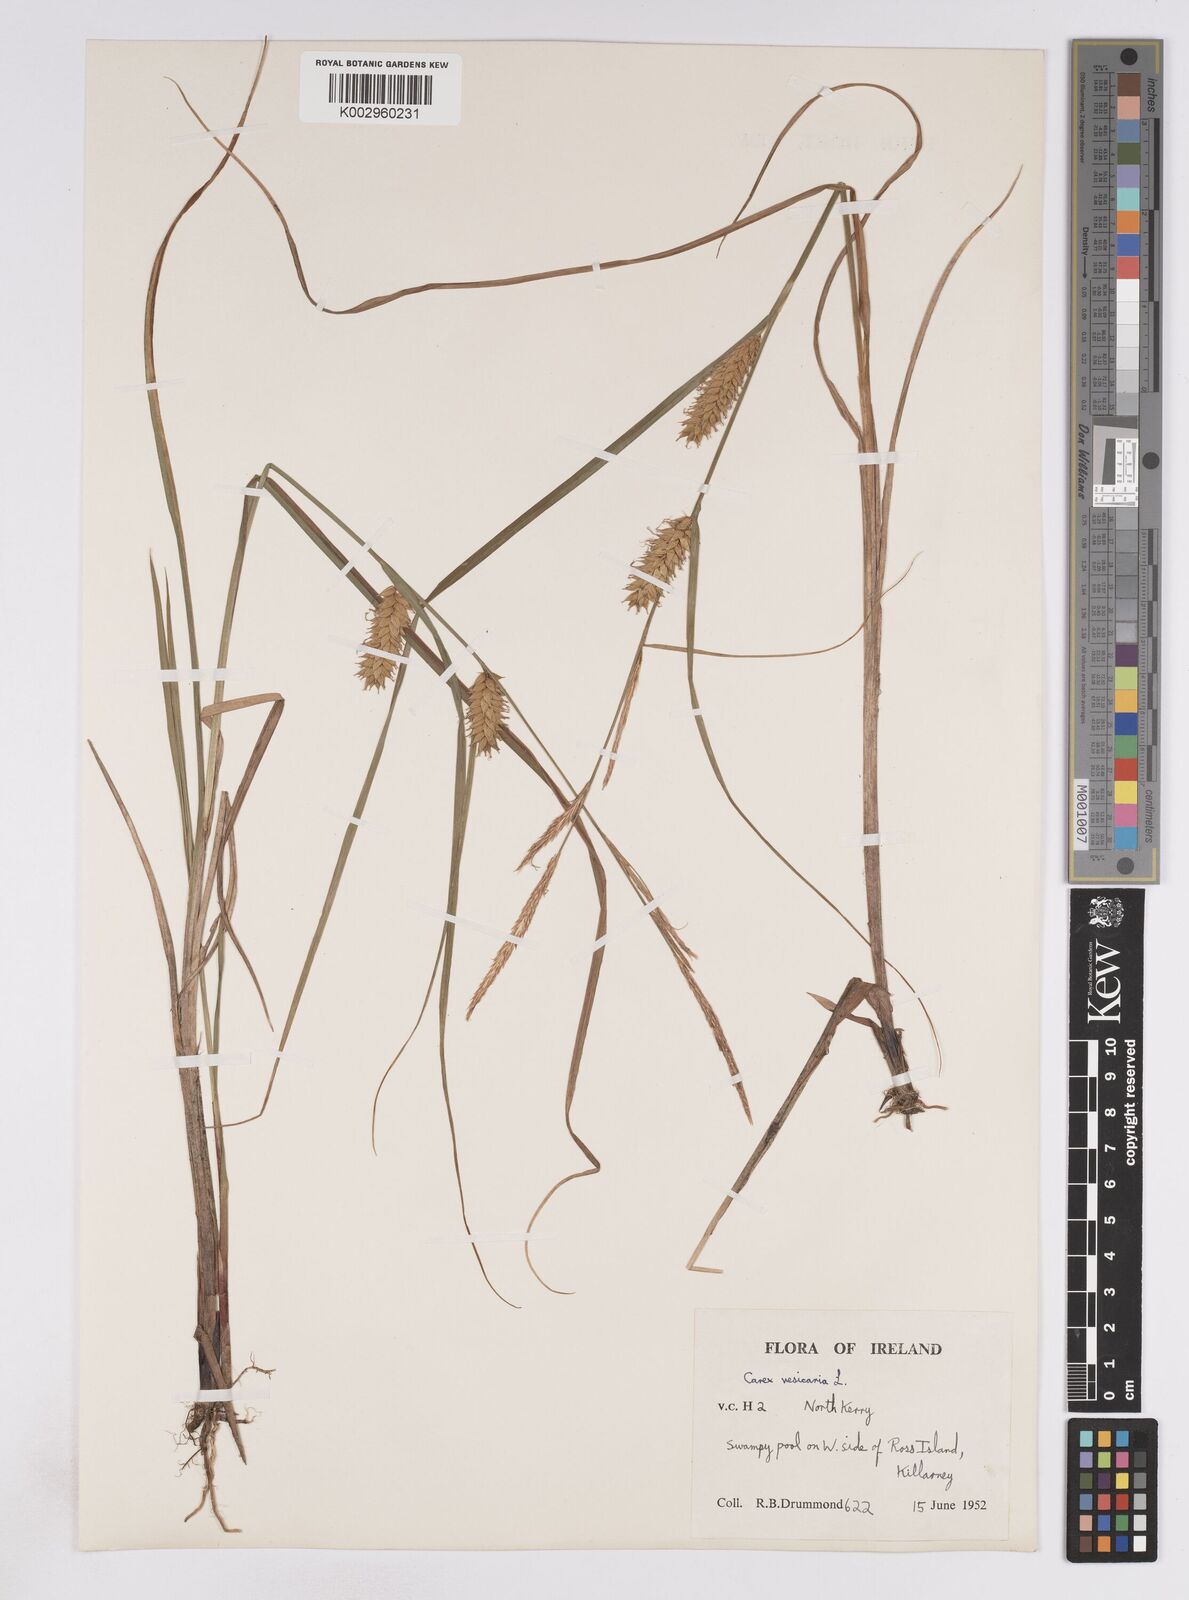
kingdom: Plantae
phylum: Tracheophyta
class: Liliopsida
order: Poales
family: Cyperaceae
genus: Carex
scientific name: Carex vesicaria
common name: Bladder-sedge
